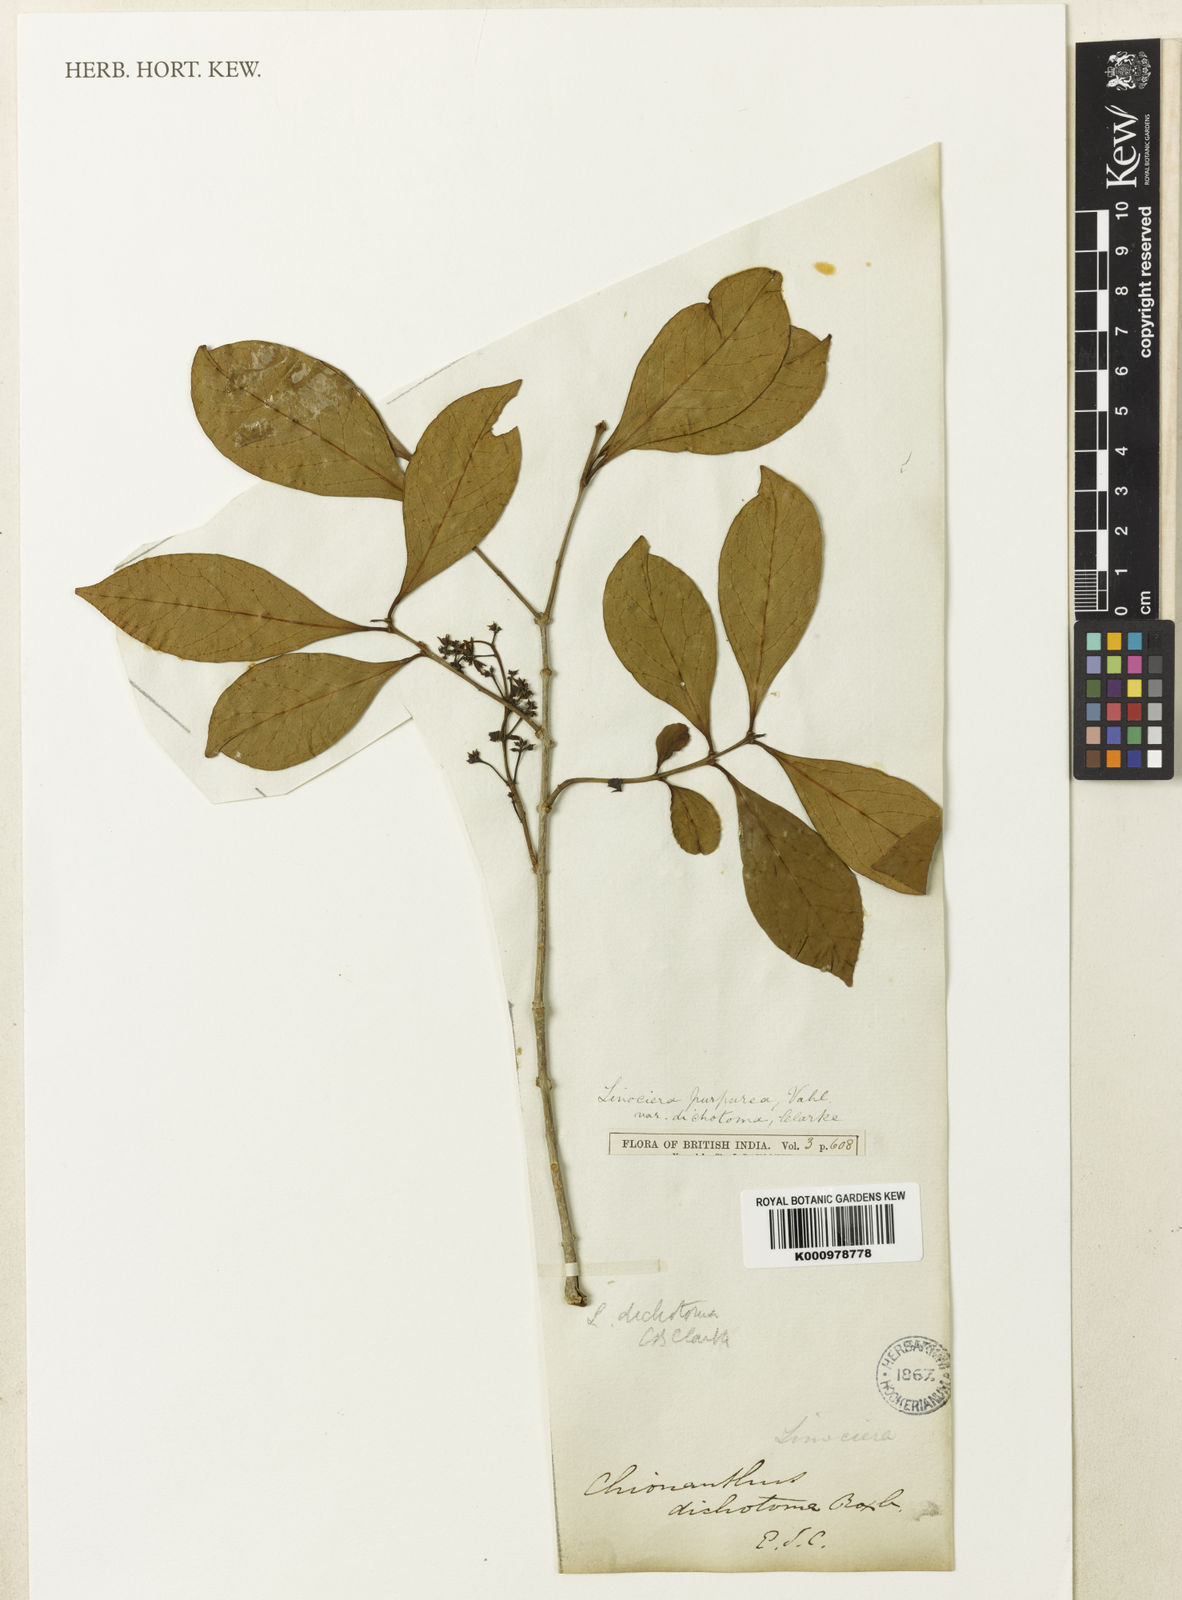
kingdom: Plantae
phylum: Tracheophyta
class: Magnoliopsida
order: Lamiales
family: Oleaceae
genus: Chionanthus
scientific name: Chionanthus zeylanicus
